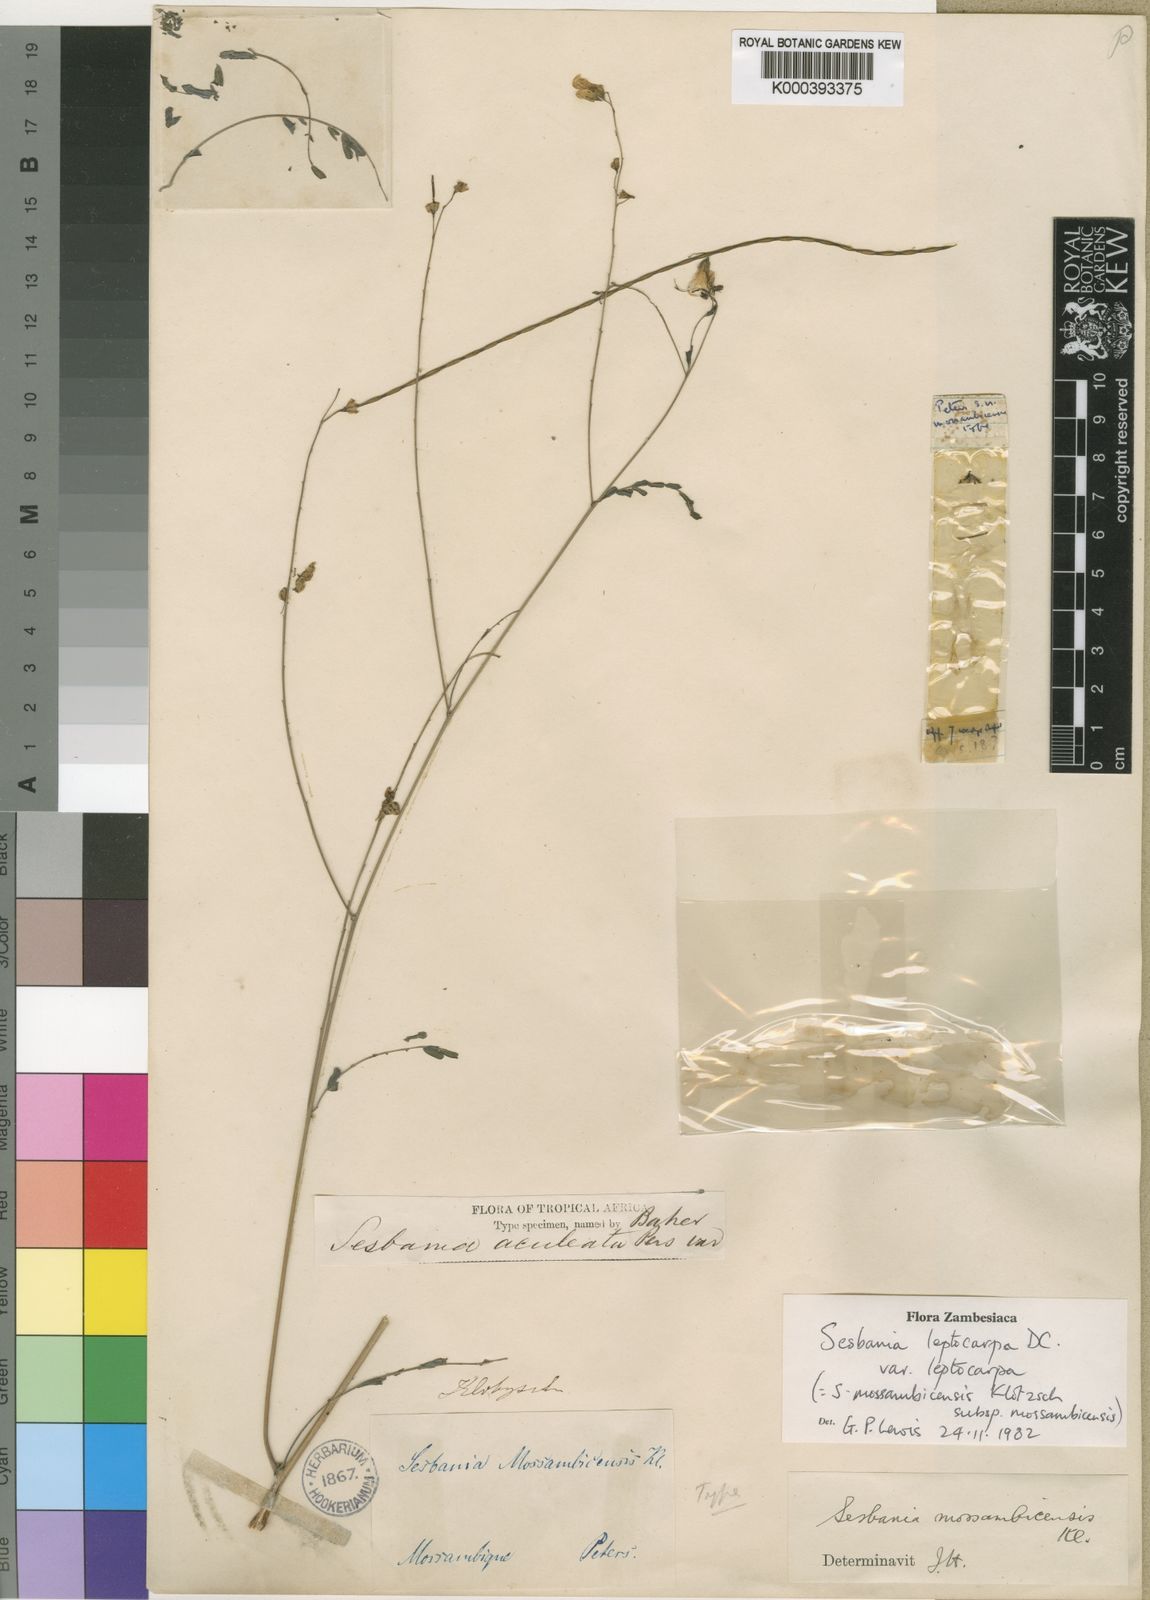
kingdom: Plantae
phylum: Tracheophyta
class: Magnoliopsida
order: Fabales
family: Fabaceae
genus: Sesbania
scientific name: Sesbania leptocarpa
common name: Riverhemp
